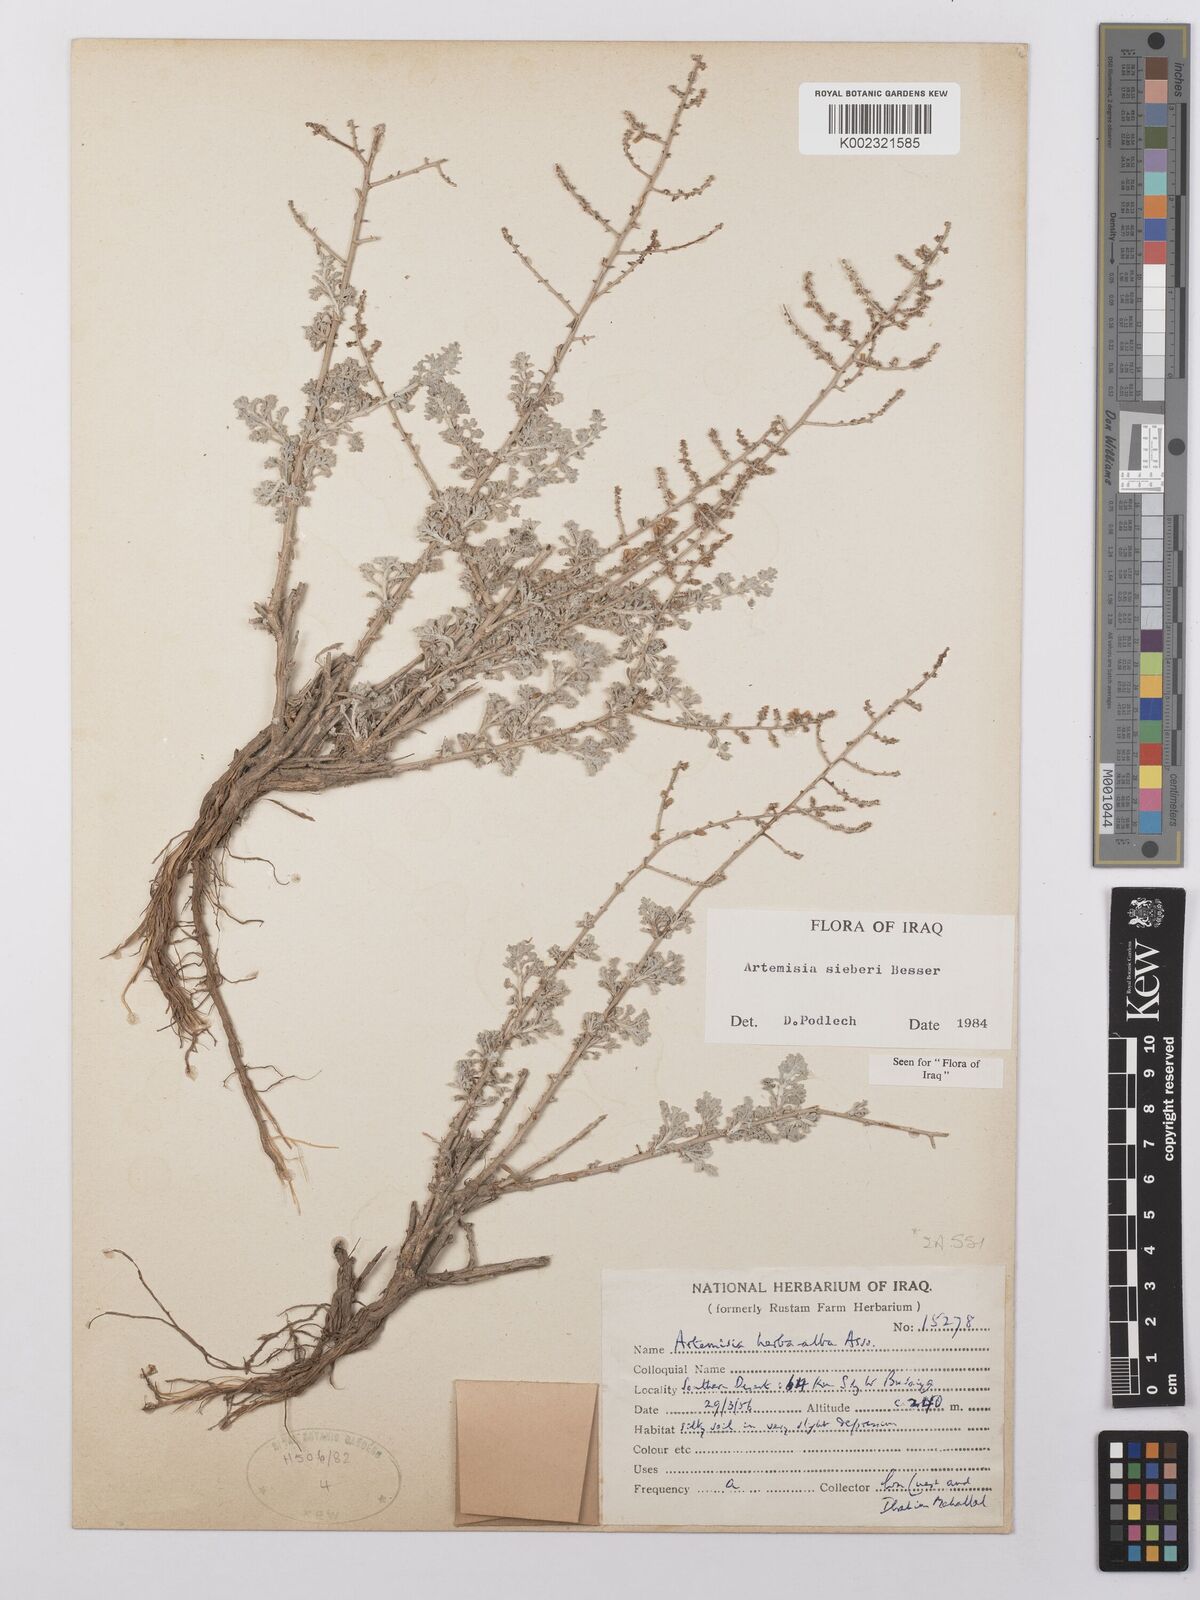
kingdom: Plantae
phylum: Tracheophyta
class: Magnoliopsida
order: Asterales
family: Asteraceae
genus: Artemisia
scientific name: Artemisia sieberi
